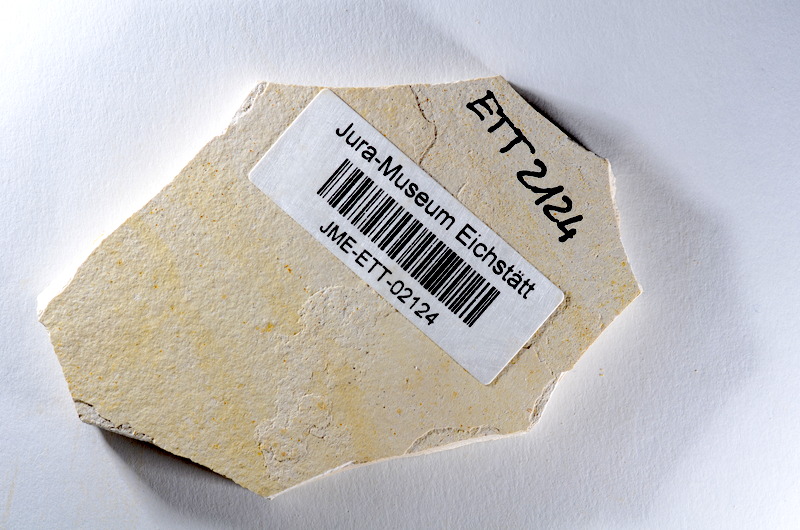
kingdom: Animalia
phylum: Chordata
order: Salmoniformes
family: Orthogonikleithridae
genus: Orthogonikleithrus
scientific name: Orthogonikleithrus hoelli
